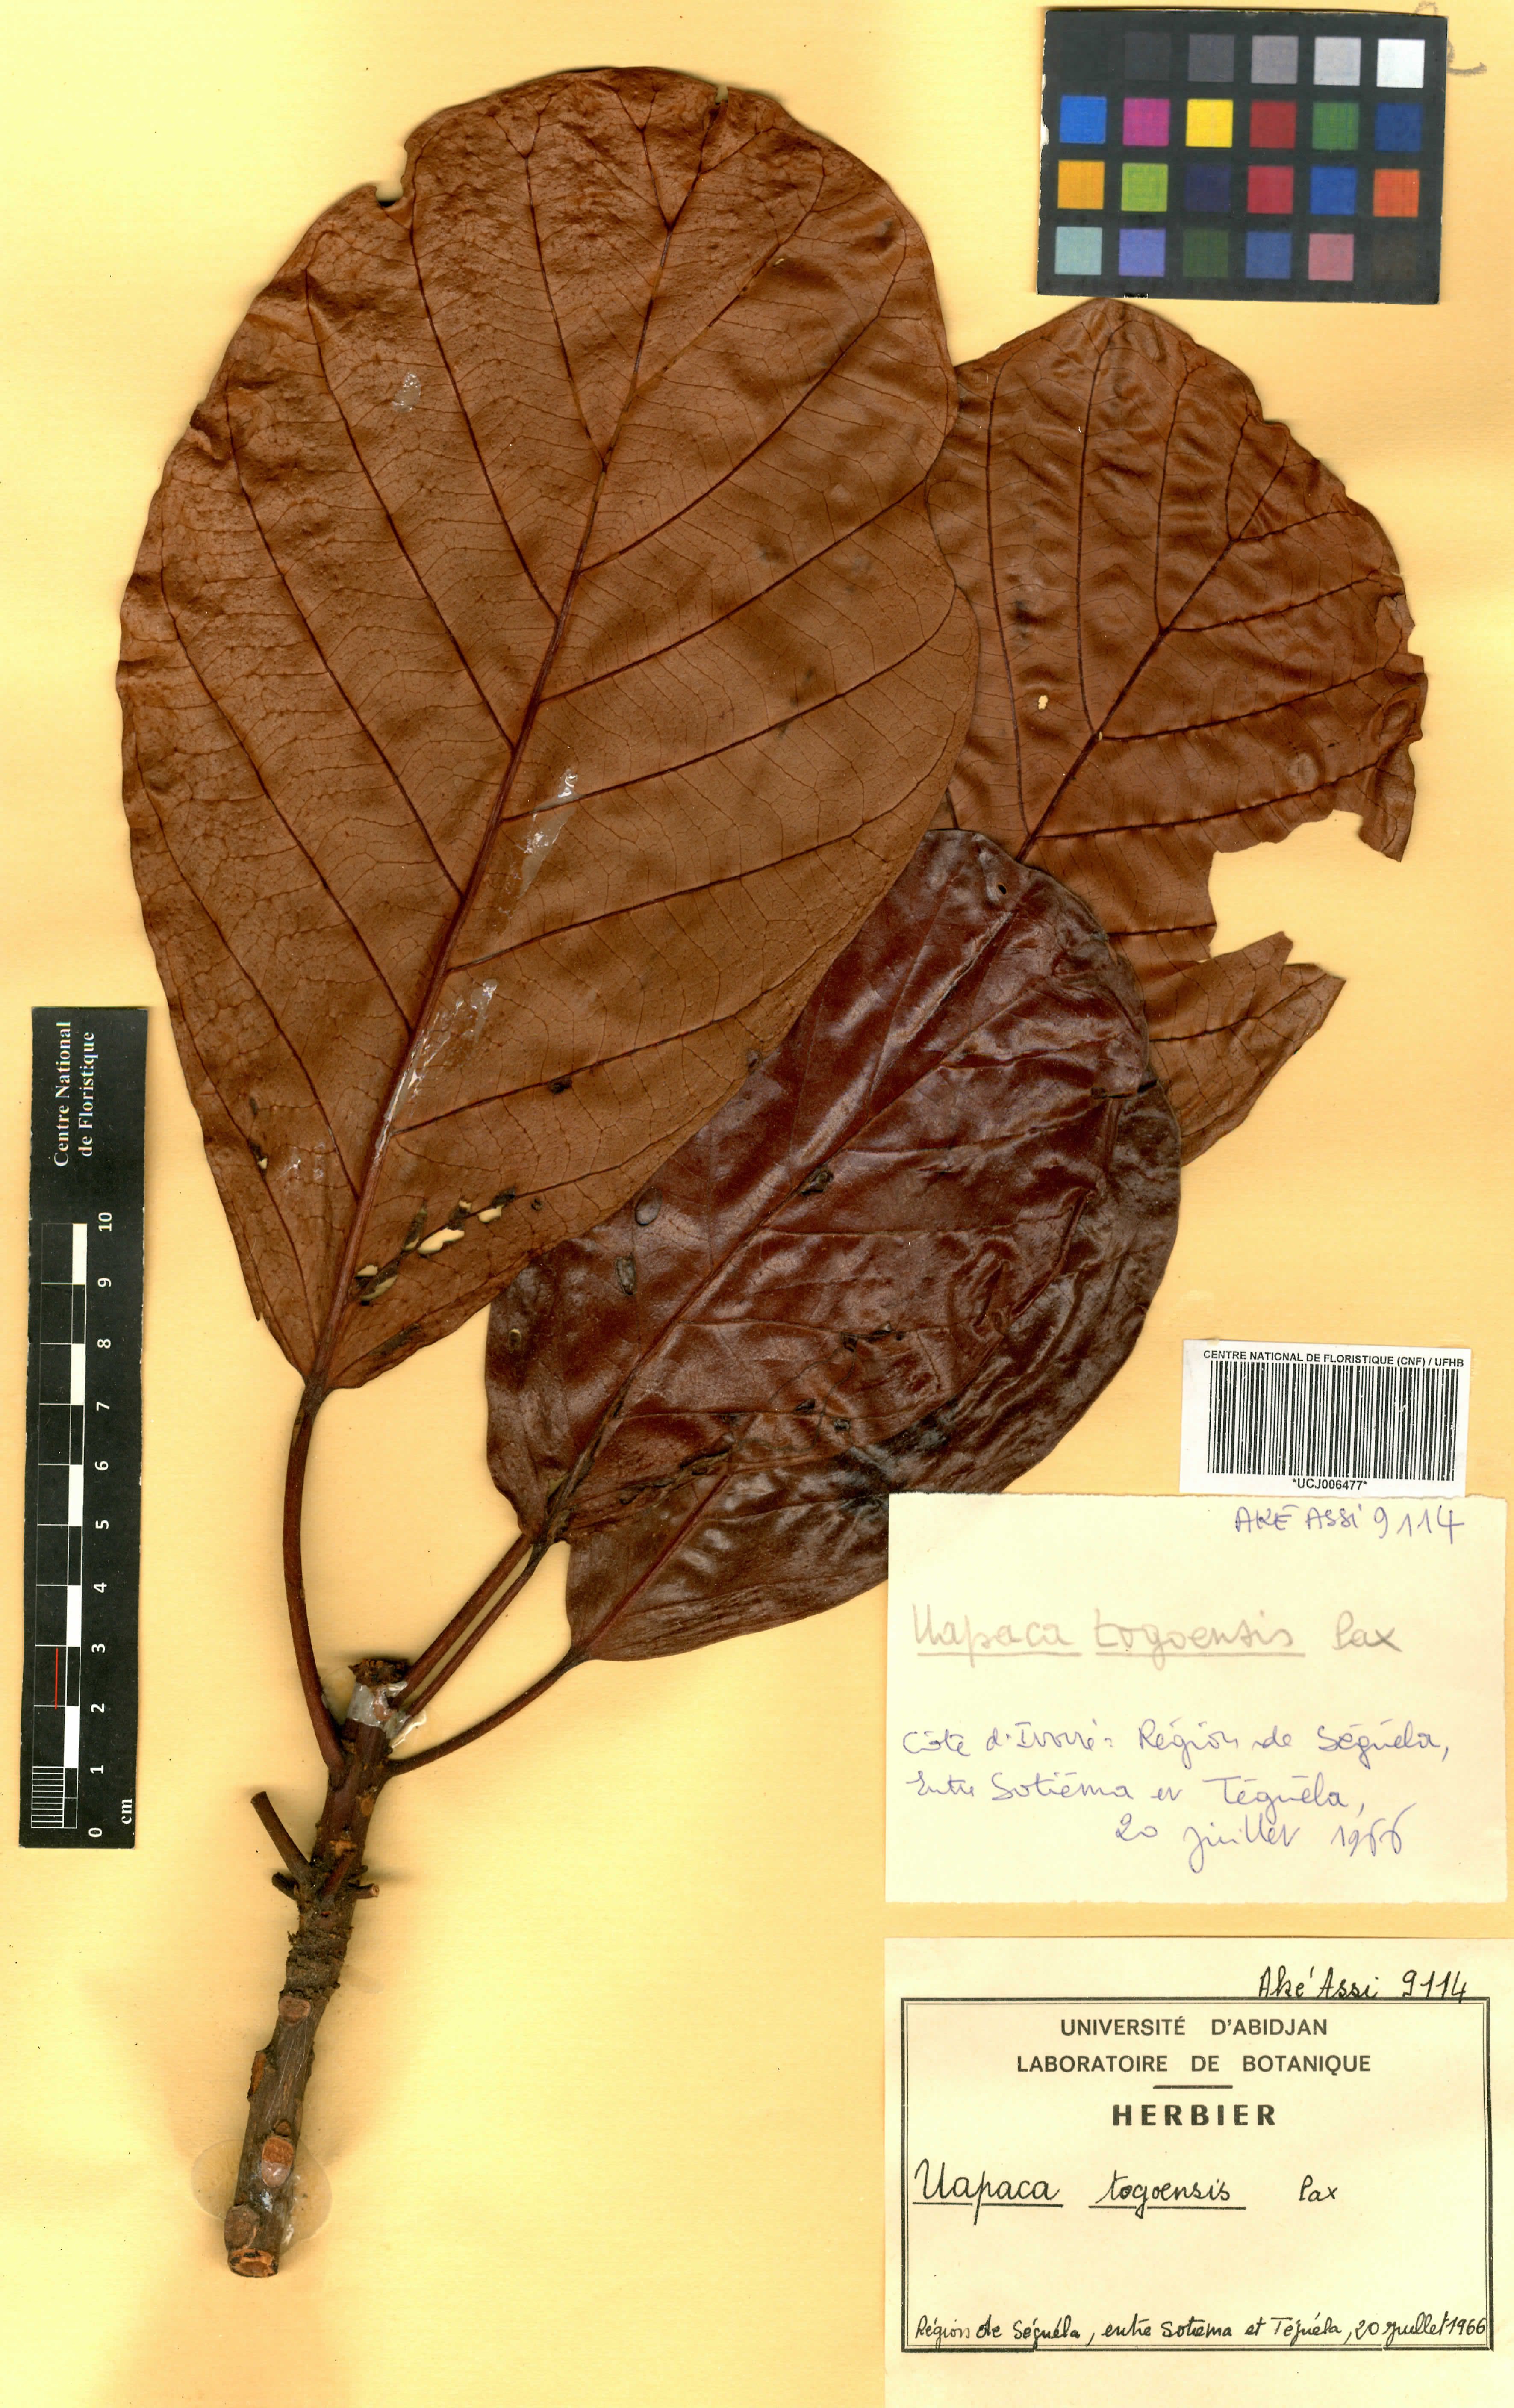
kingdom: Plantae
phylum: Tracheophyta
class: Magnoliopsida
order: Malpighiales
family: Phyllanthaceae
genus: Uapaca
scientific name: Uapaca togoensis
